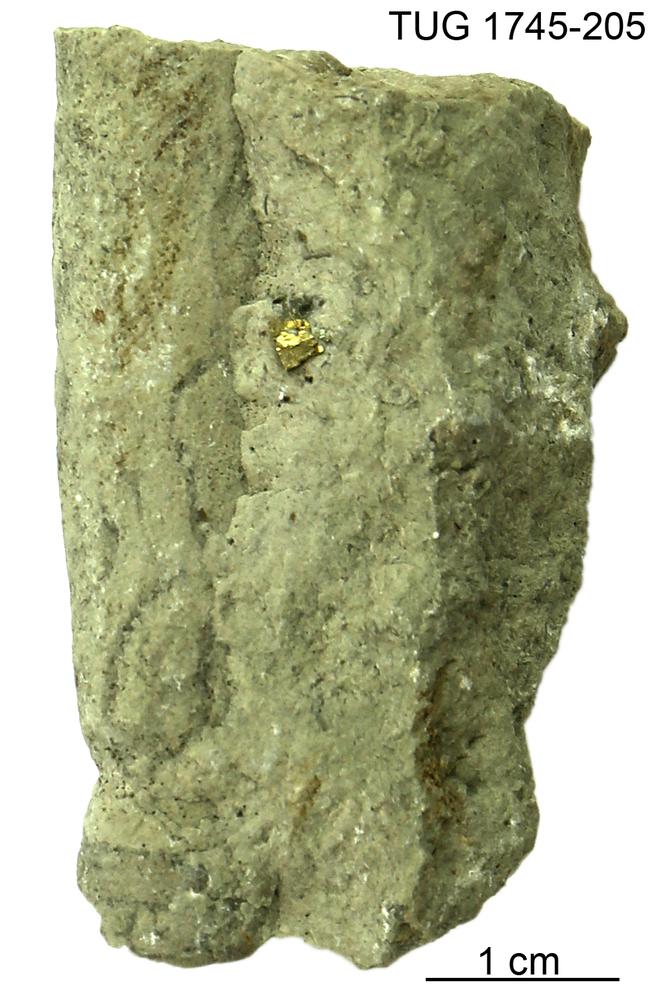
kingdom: Animalia
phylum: Mollusca
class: Cephalopoda
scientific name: Cephalopoda
